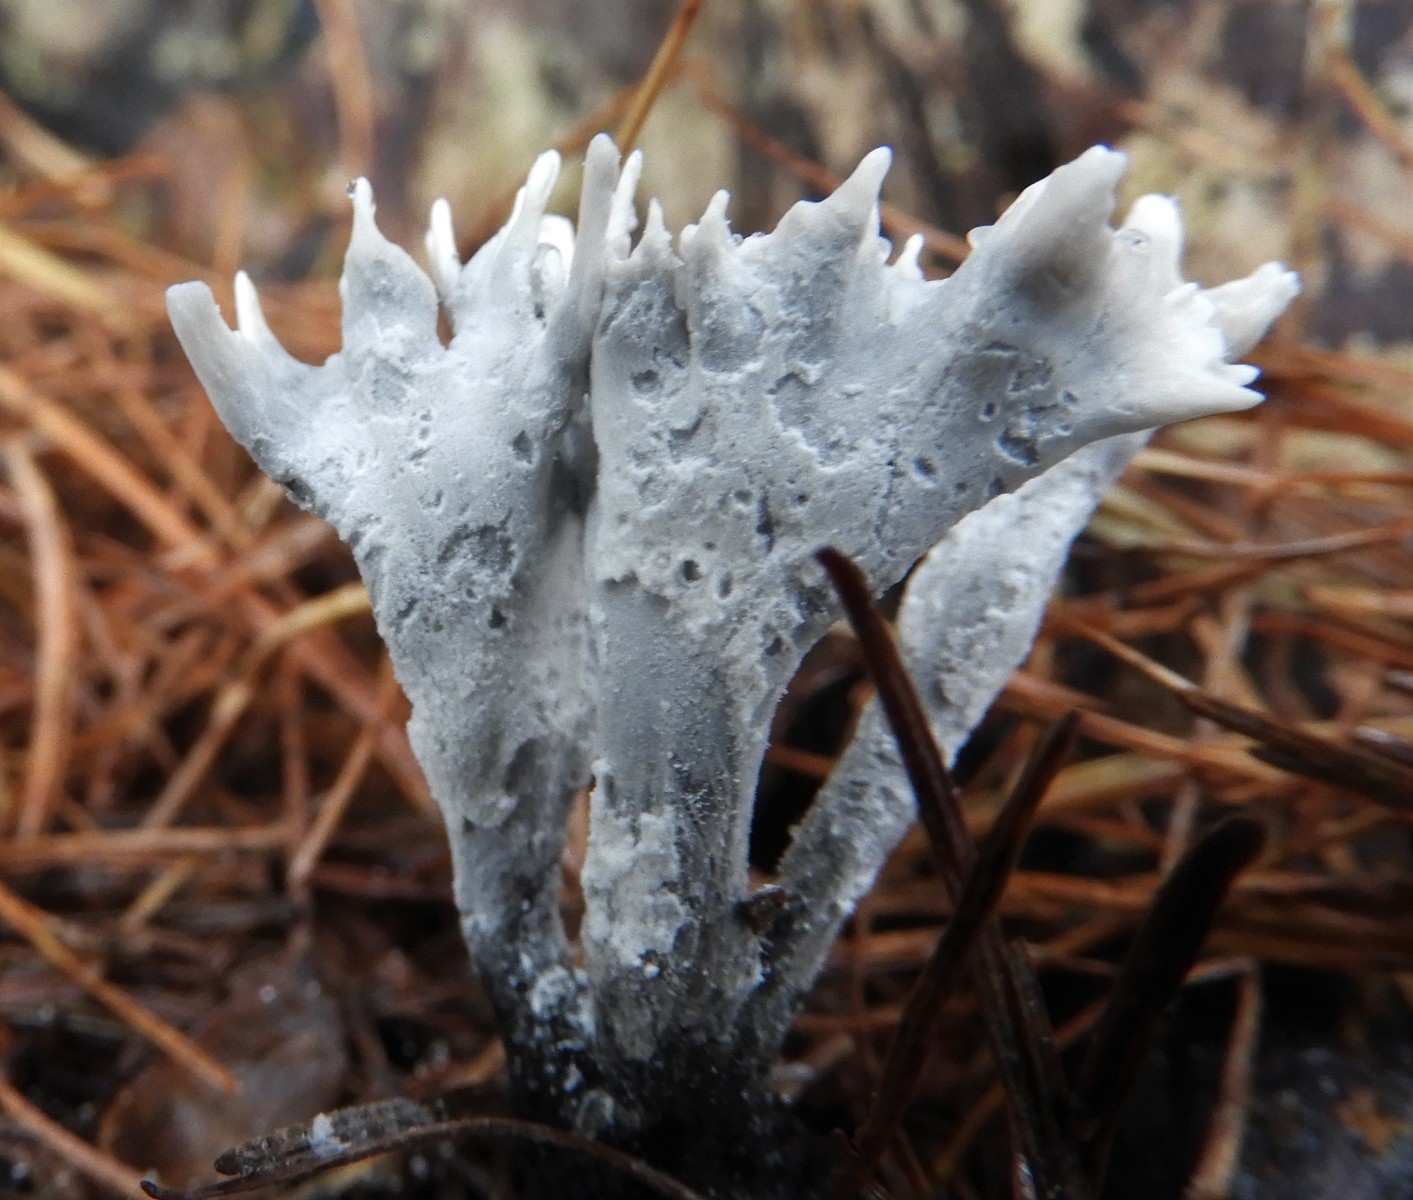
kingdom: Fungi
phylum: Ascomycota
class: Sordariomycetes
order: Xylariales
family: Xylariaceae
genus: Xylaria
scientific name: Xylaria hypoxylon
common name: grenet stødsvamp
